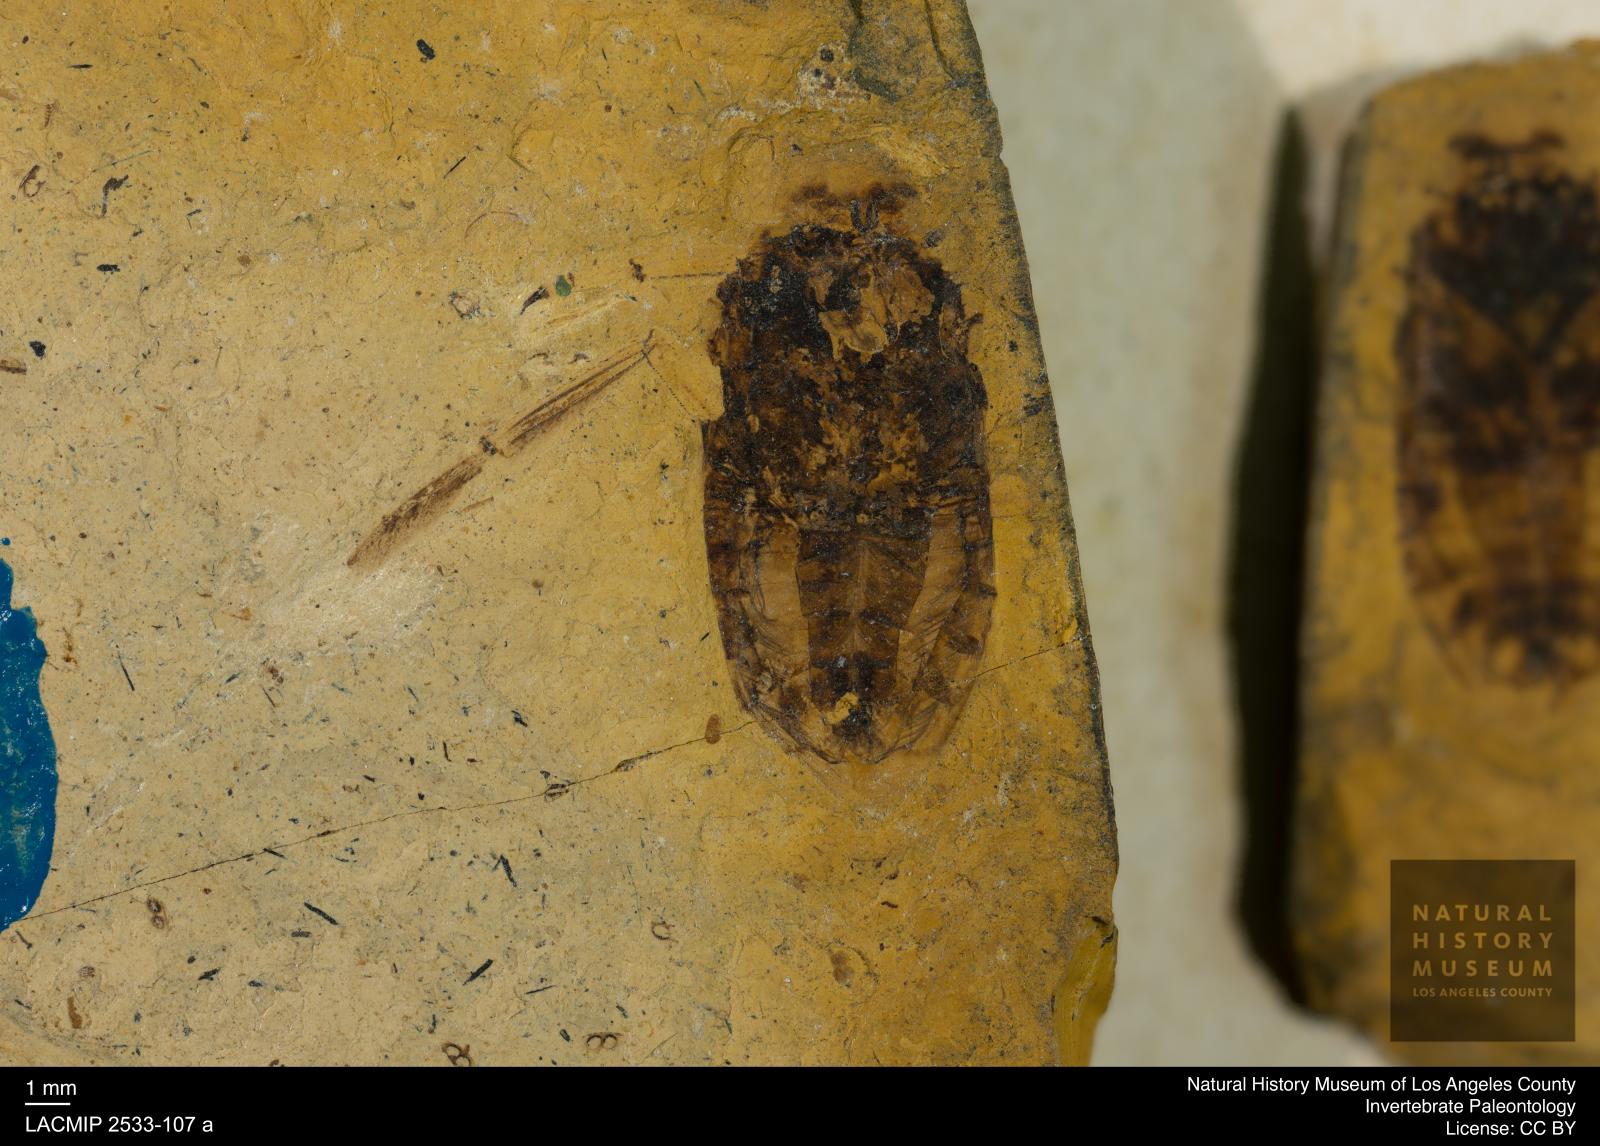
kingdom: Animalia
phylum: Arthropoda
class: Insecta
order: Hemiptera
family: Notonectidae
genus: Notonecta
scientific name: Notonecta primaeva
